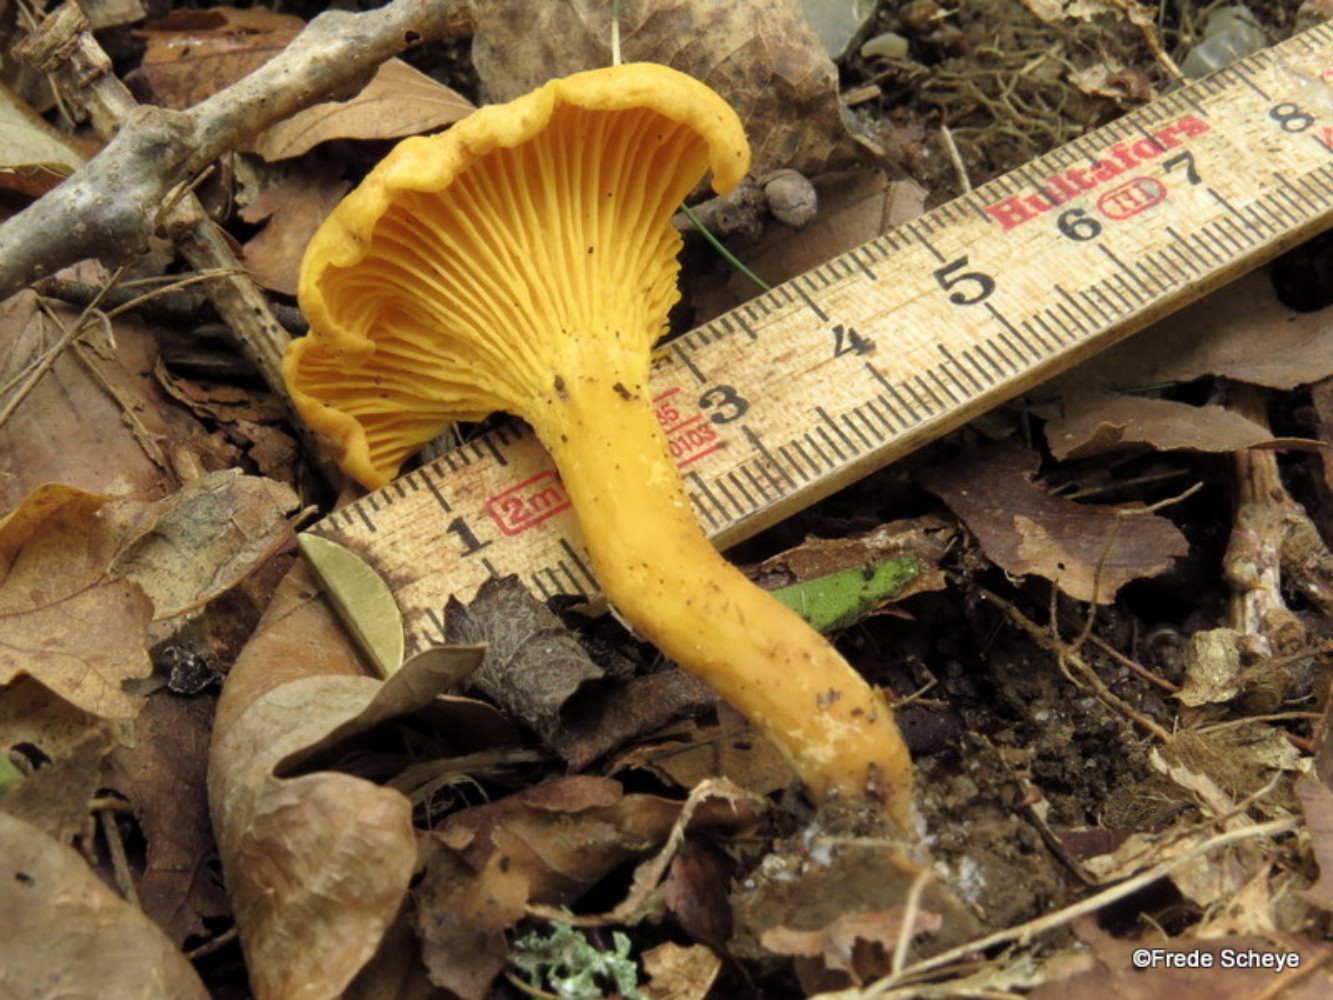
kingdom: Fungi
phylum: Basidiomycota
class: Agaricomycetes
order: Cantharellales
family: Hydnaceae
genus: Cantharellus
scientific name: Cantharellus cibarius
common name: almindelig kantarel
